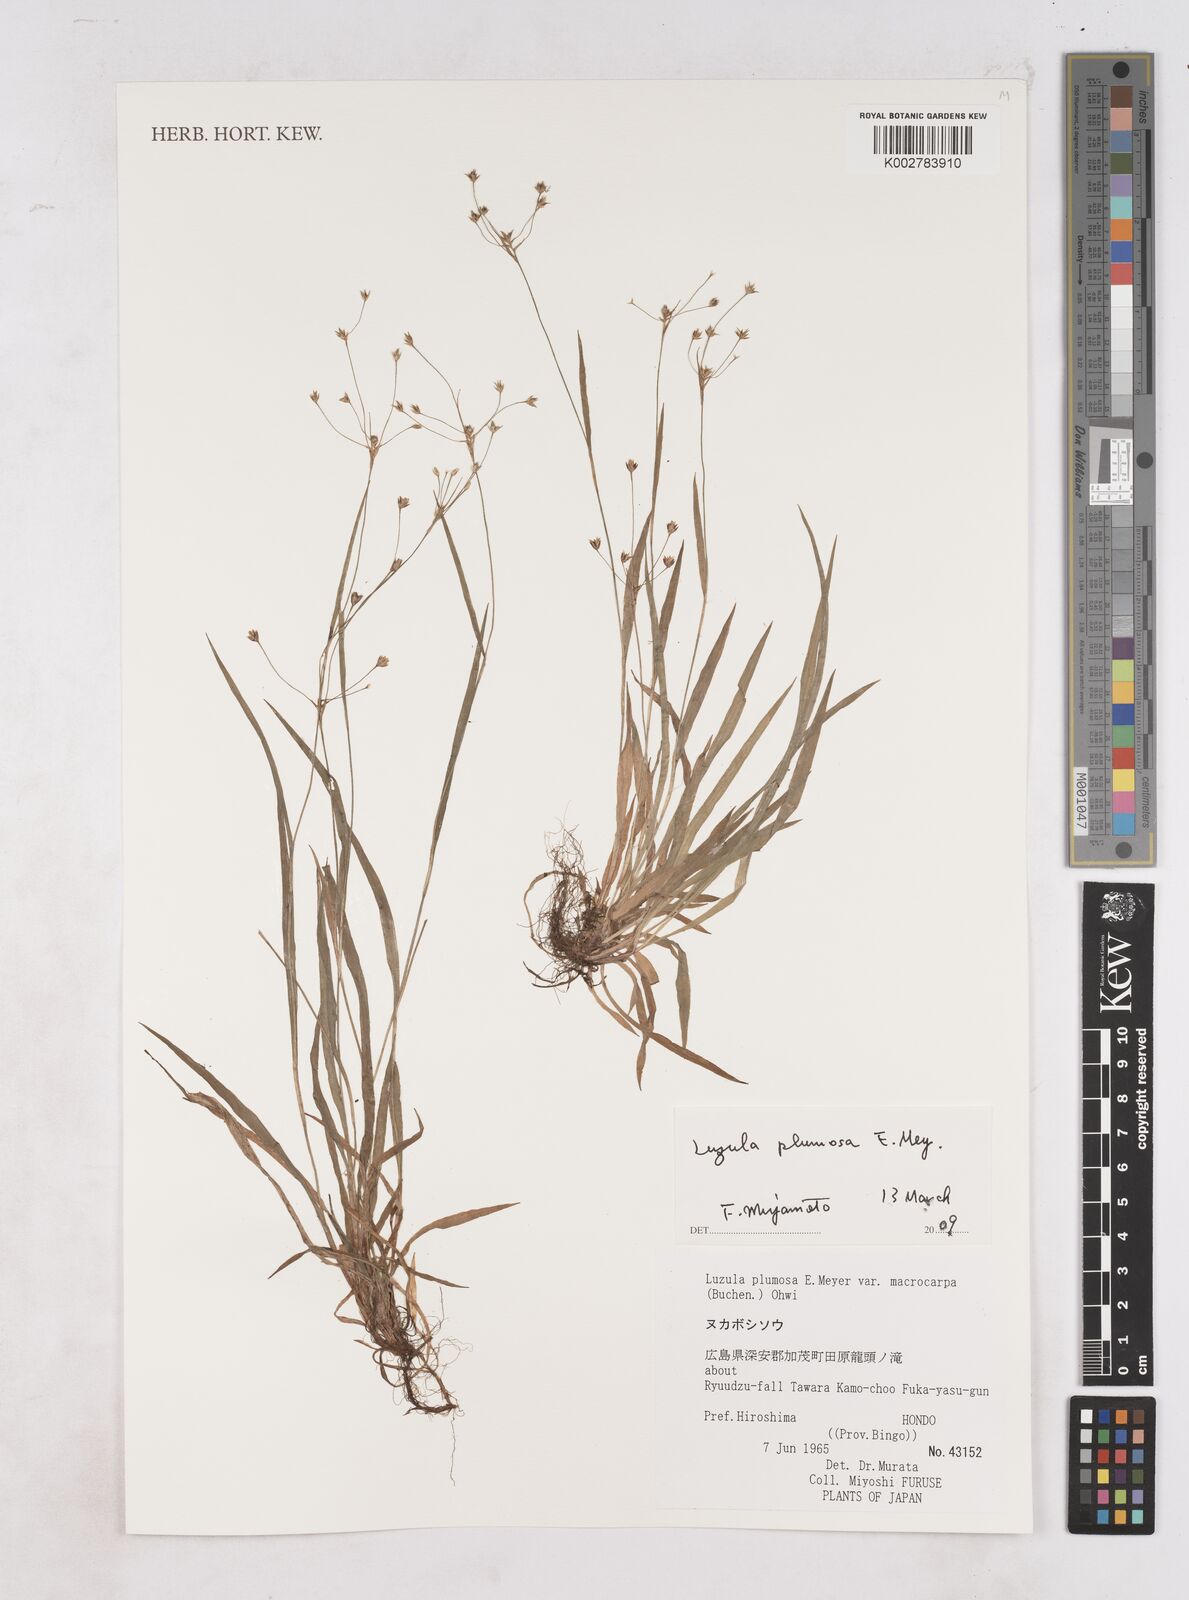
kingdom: Plantae
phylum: Tracheophyta
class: Liliopsida
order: Poales
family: Juncaceae
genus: Luzula
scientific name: Luzula plumosa
